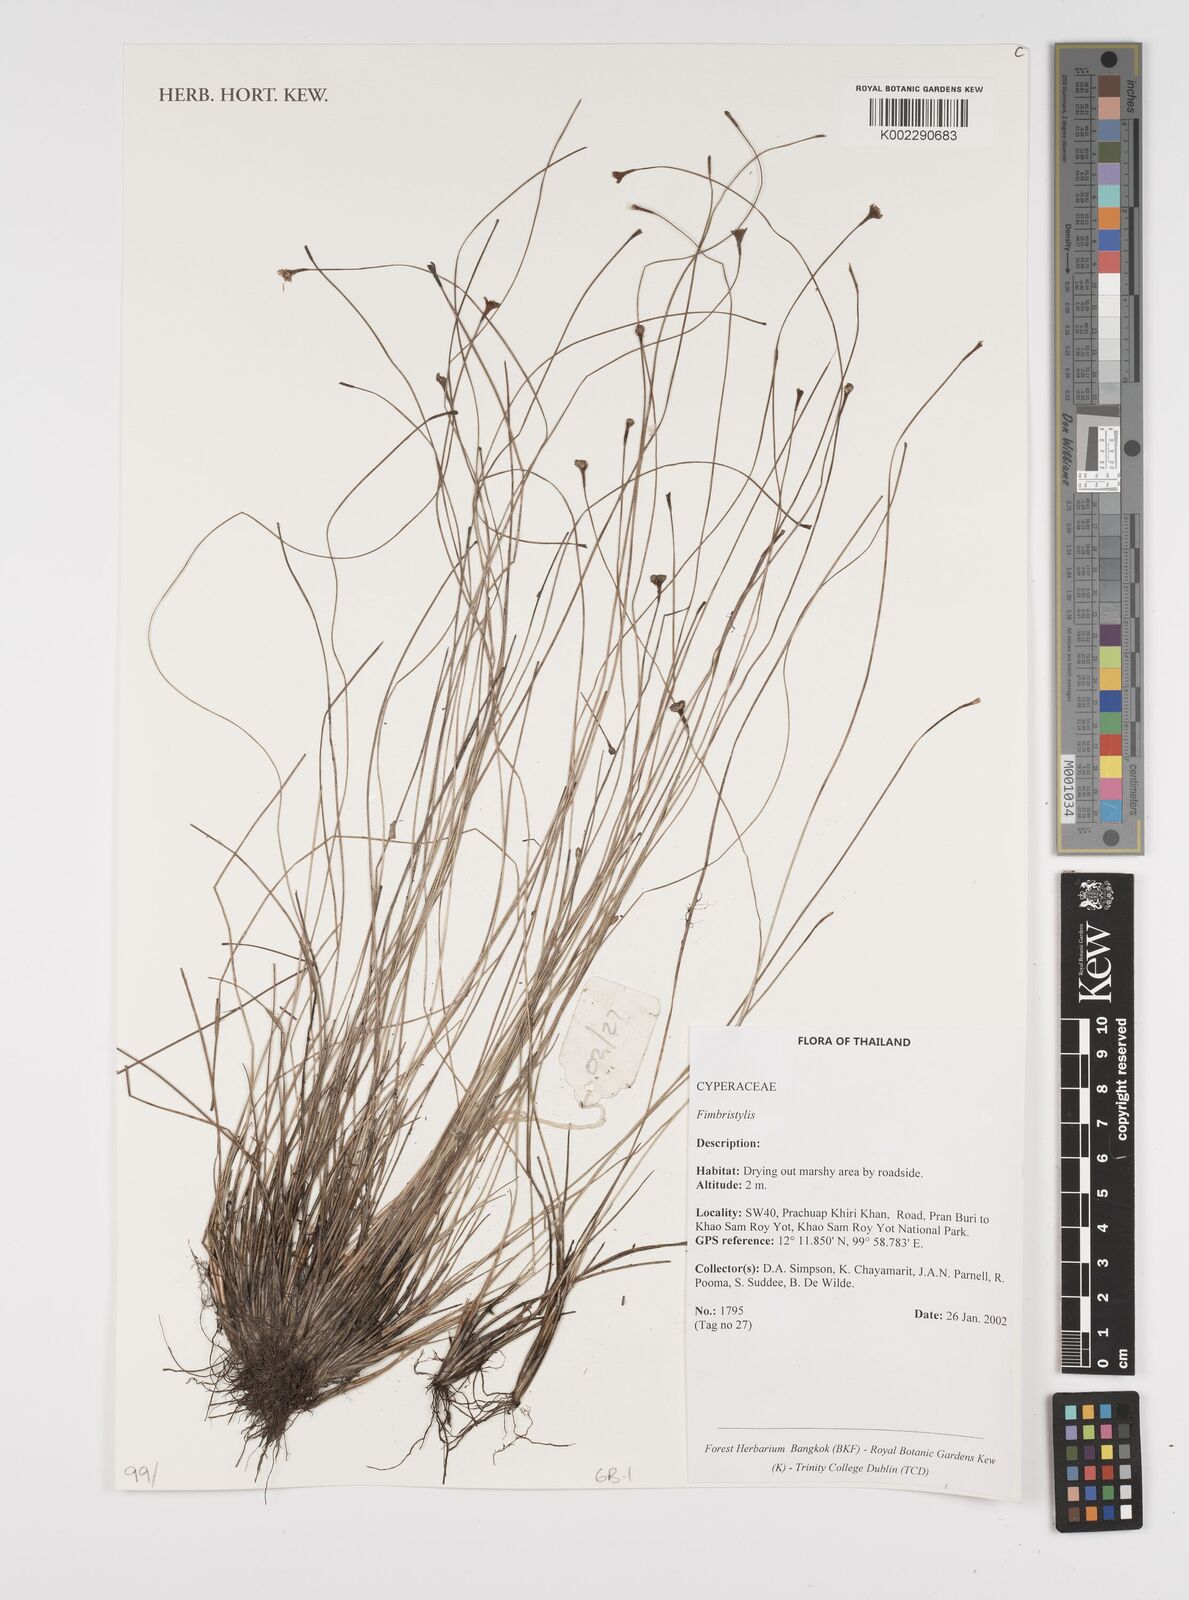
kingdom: Plantae
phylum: Tracheophyta
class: Liliopsida
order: Poales
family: Cyperaceae
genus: Fimbristylis
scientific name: Fimbristylis
